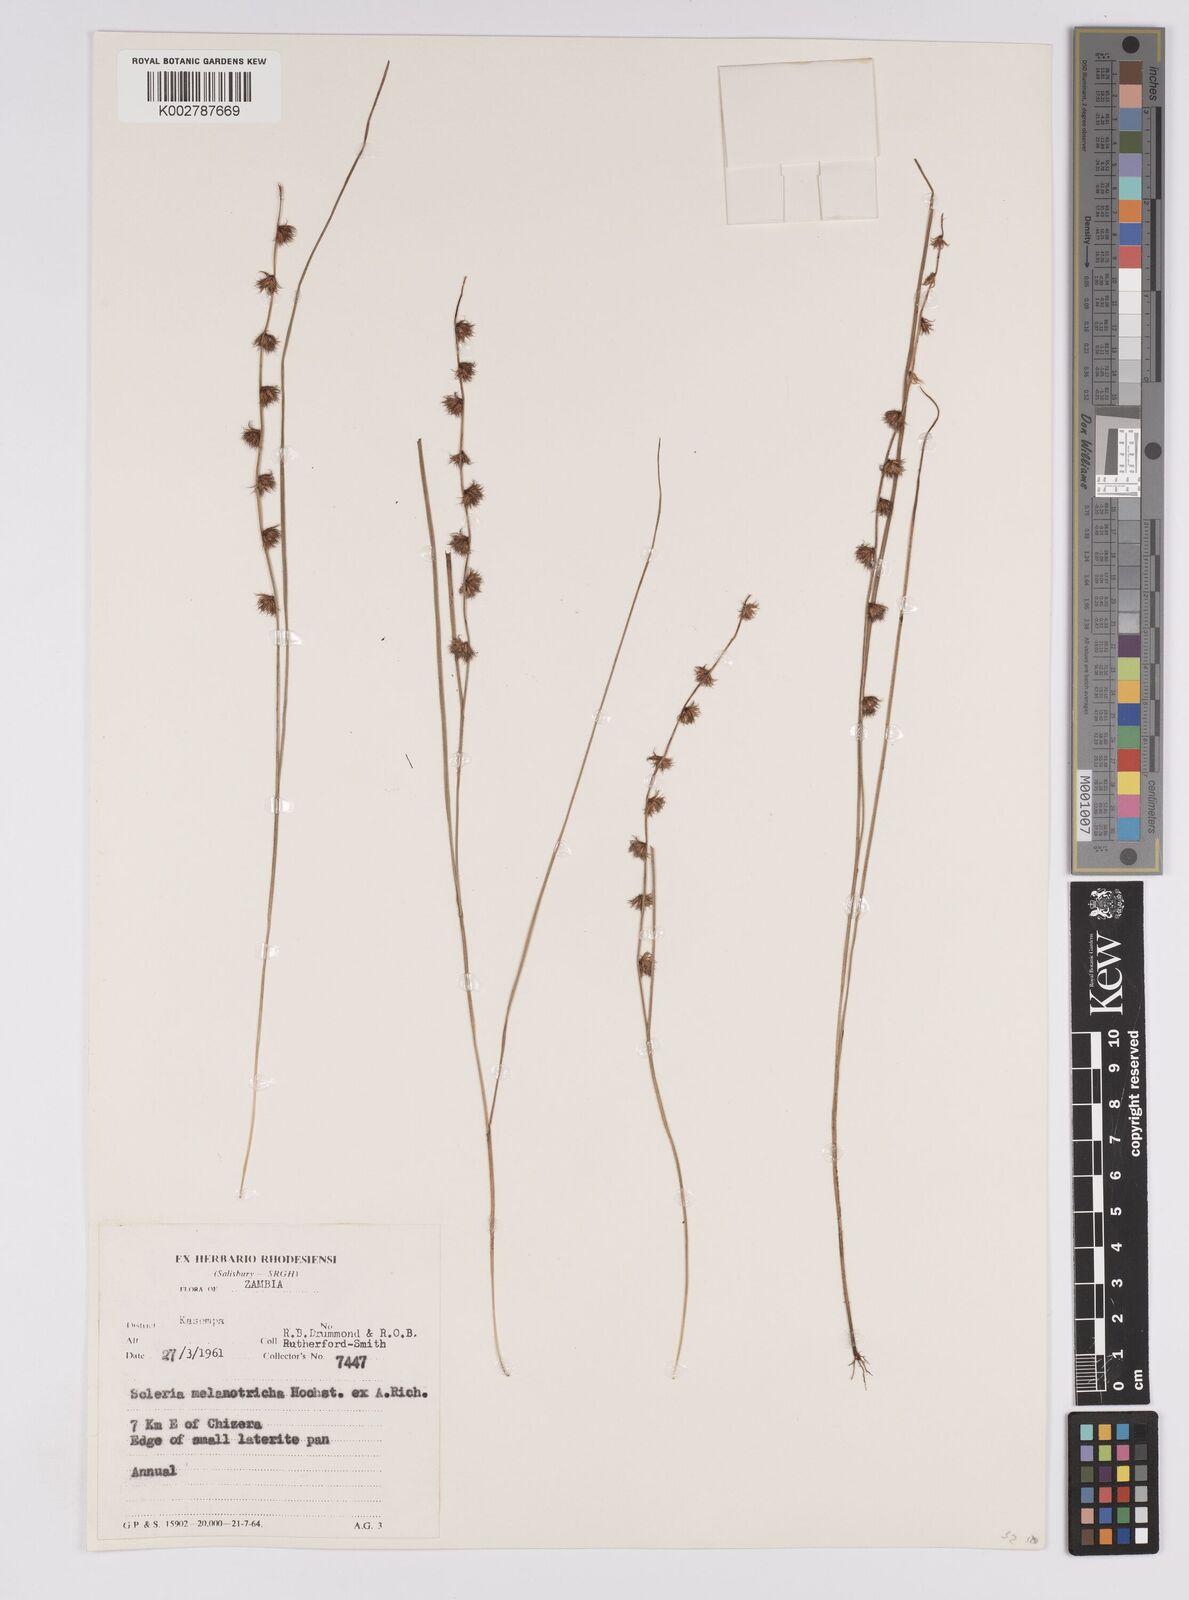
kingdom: Plantae
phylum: Tracheophyta
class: Liliopsida
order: Poales
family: Cyperaceae
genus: Scleria
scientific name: Scleria melanotricha
